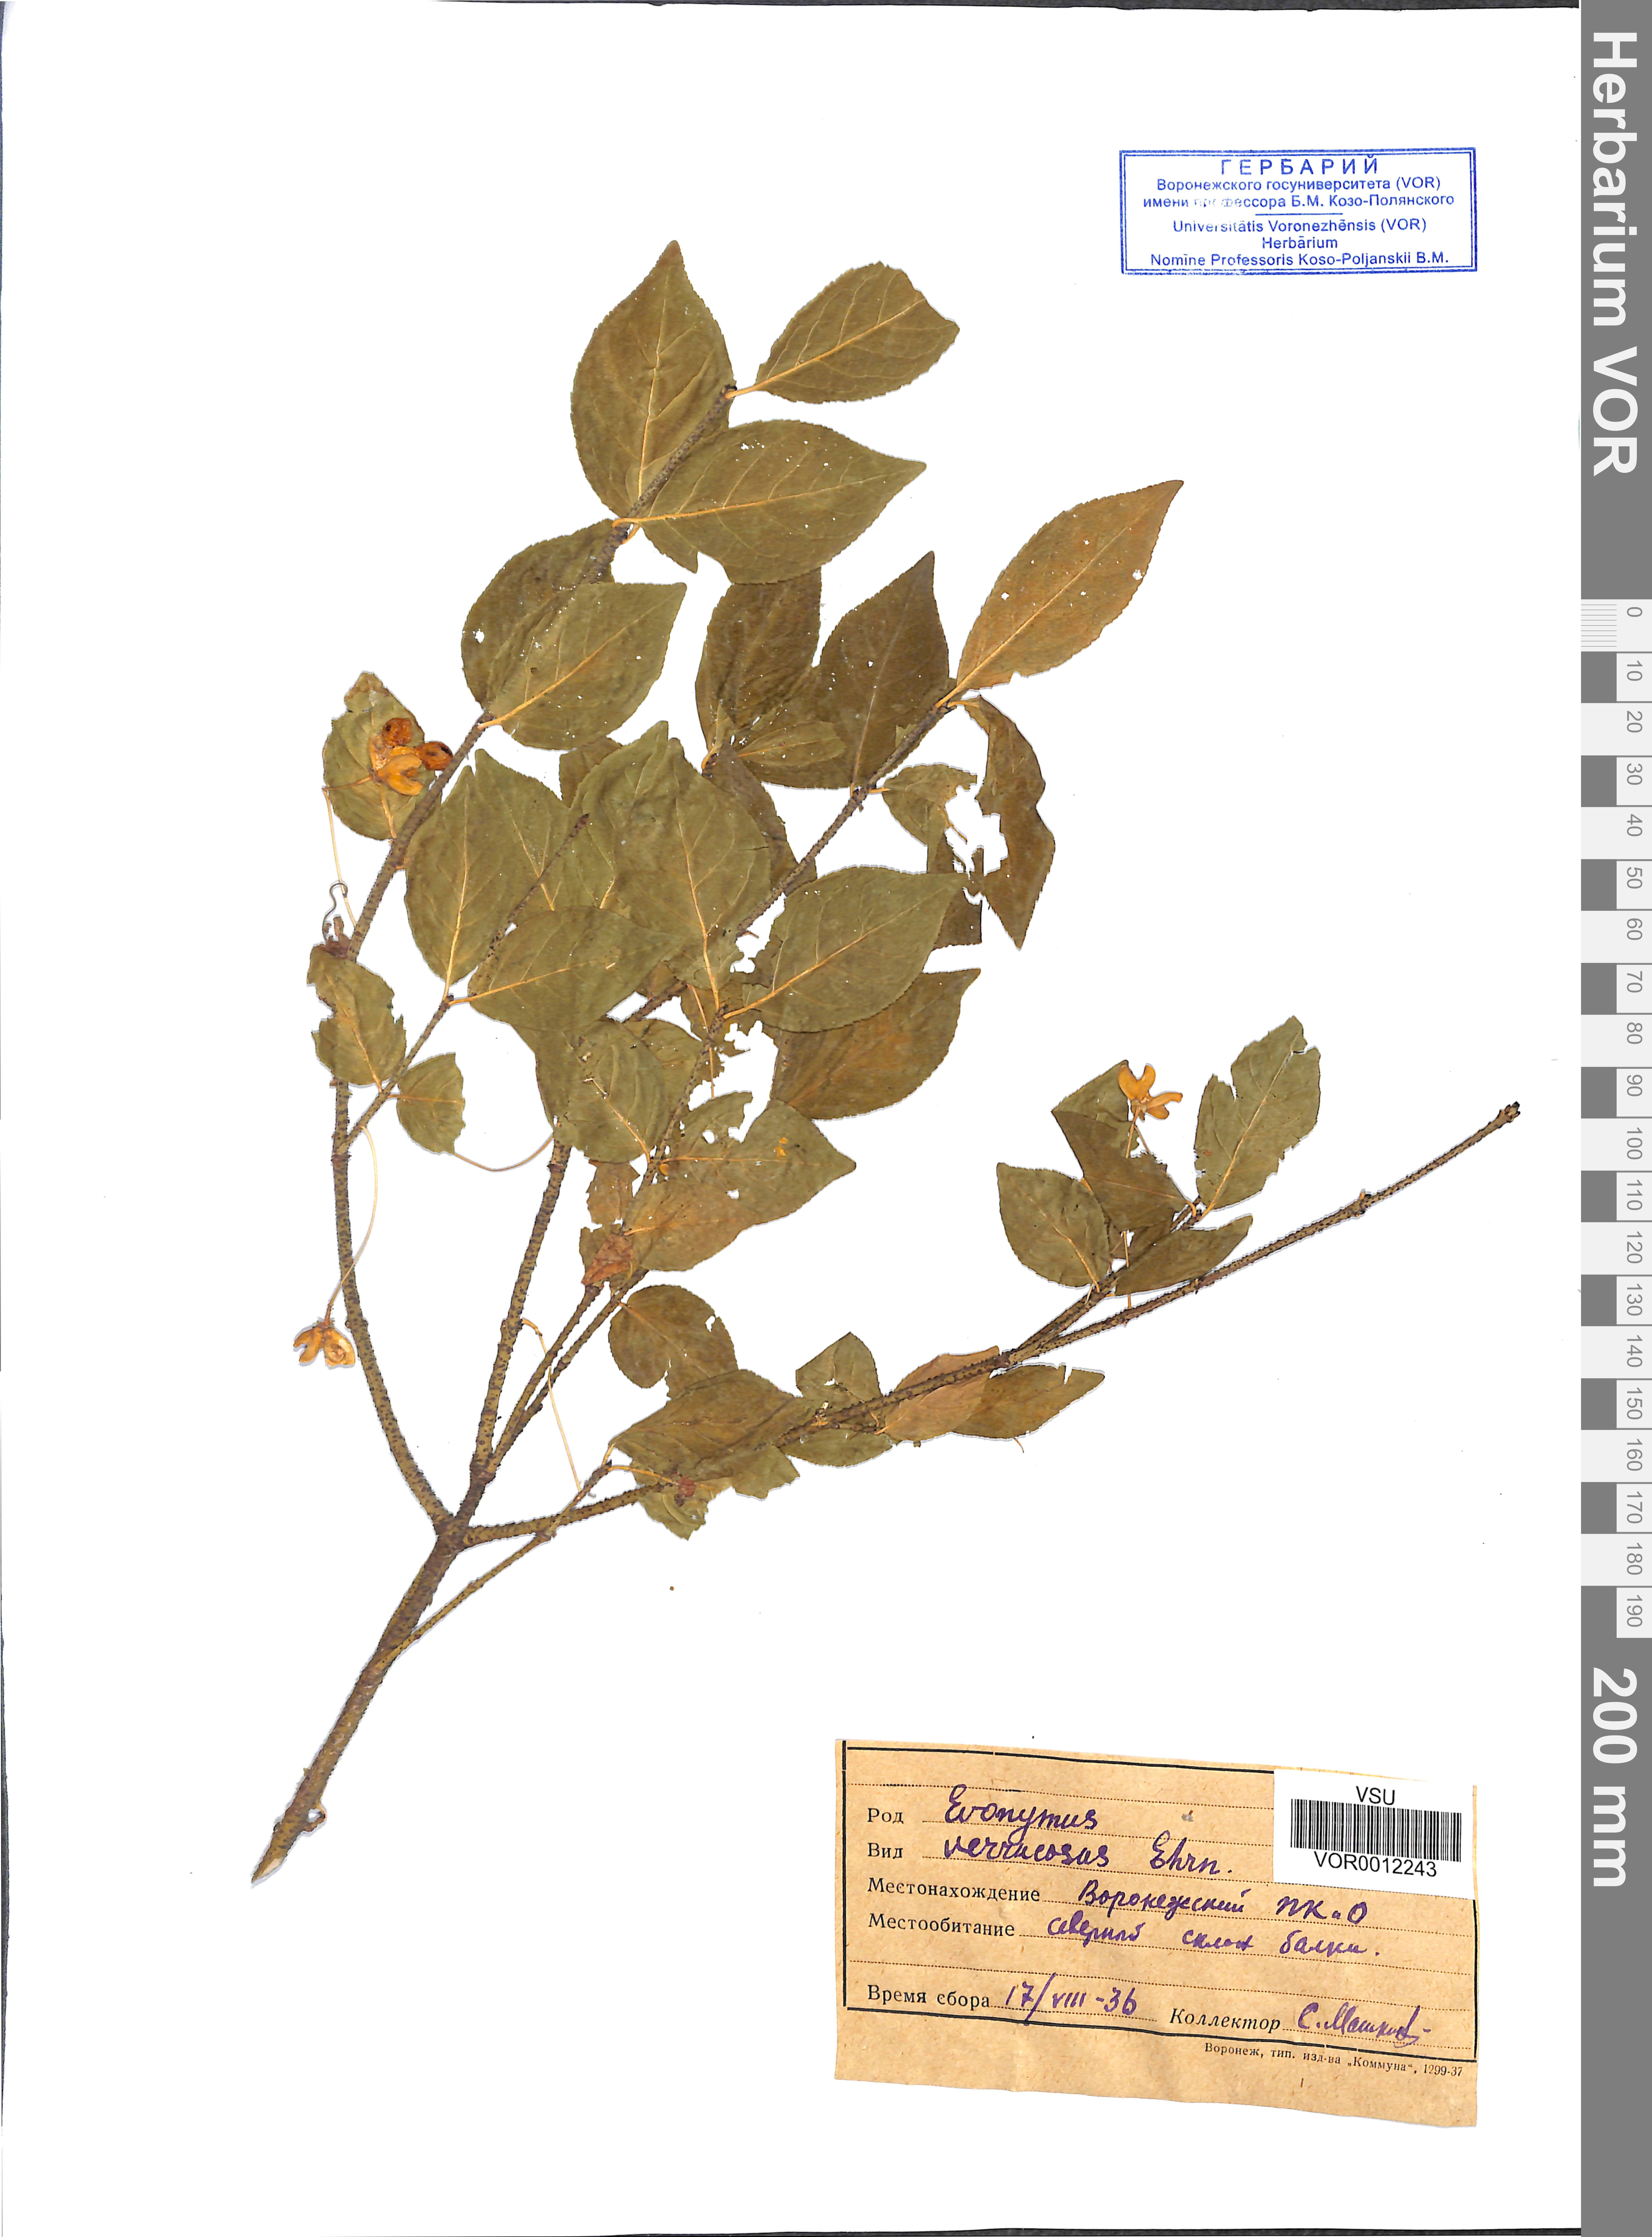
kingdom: Plantae
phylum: Tracheophyta
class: Magnoliopsida
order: Celastrales
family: Celastraceae
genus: Euonymus
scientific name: Euonymus verrucosus
